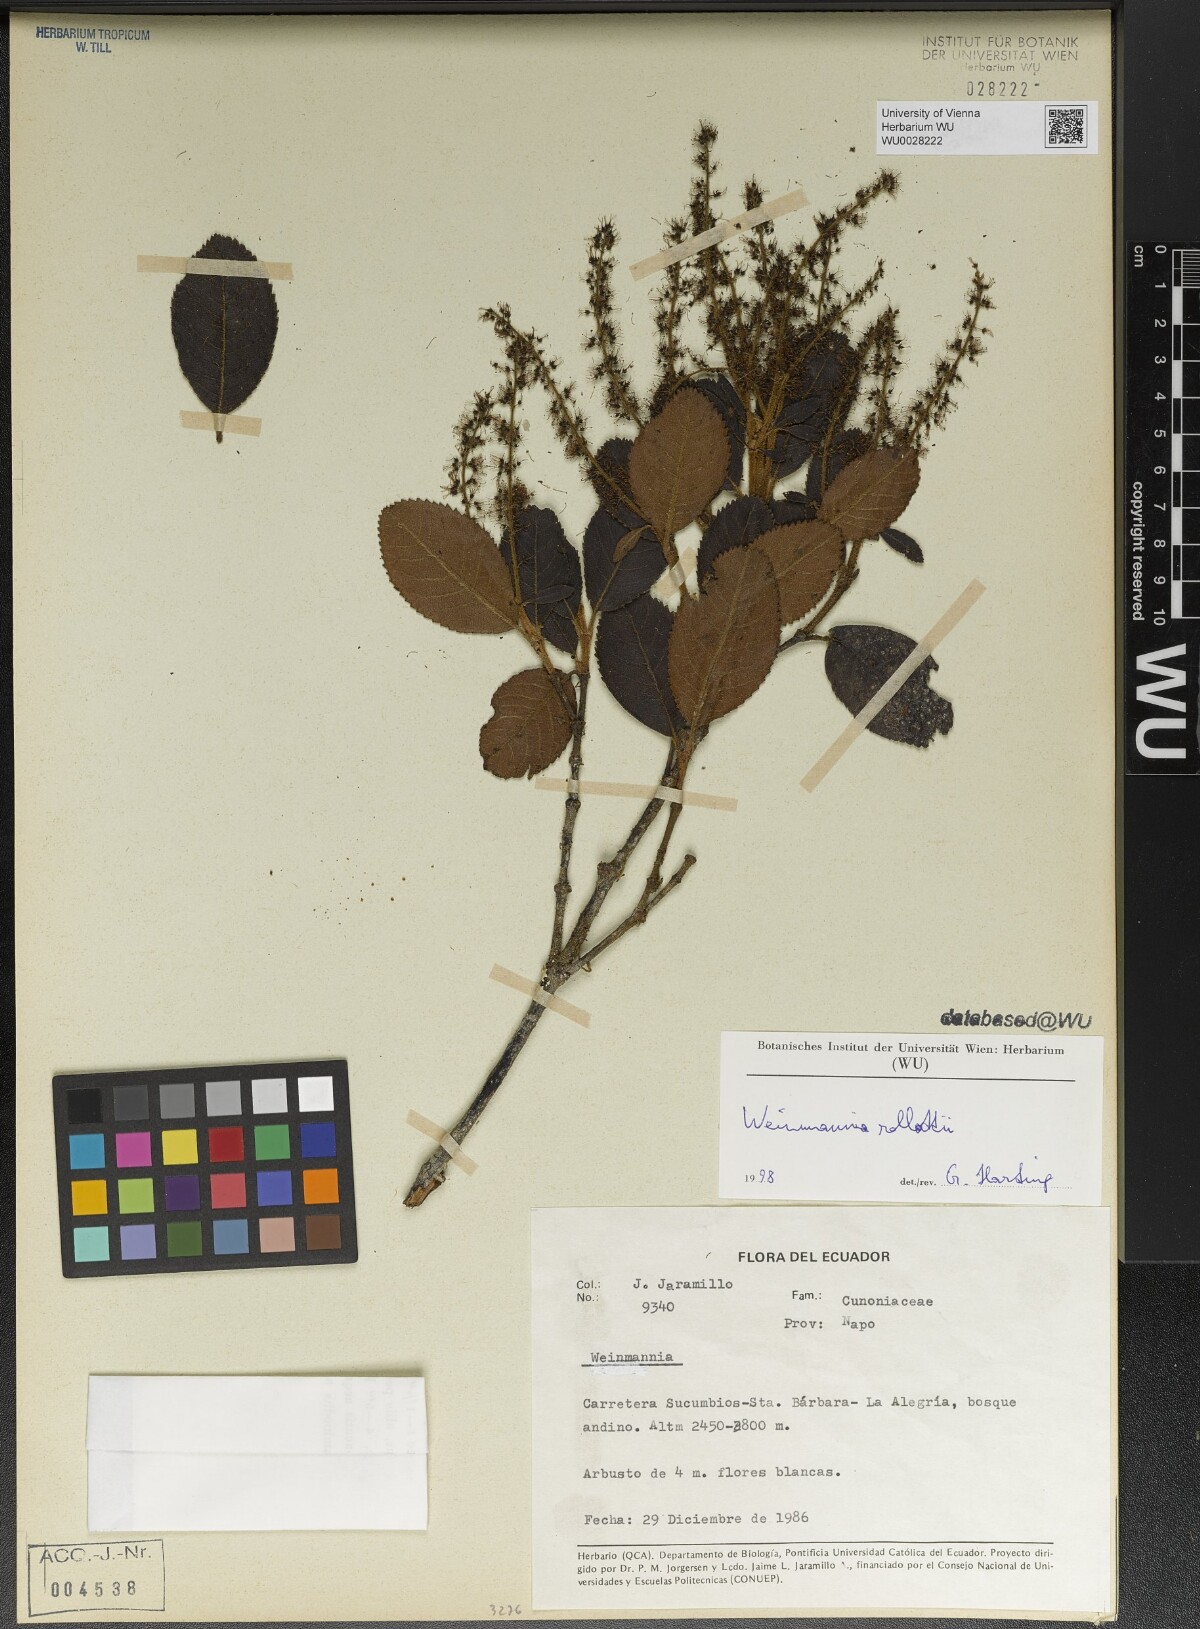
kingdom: Plantae
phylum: Tracheophyta
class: Magnoliopsida
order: Oxalidales
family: Cunoniaceae
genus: Weinmannia
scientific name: Weinmannia rollottii
